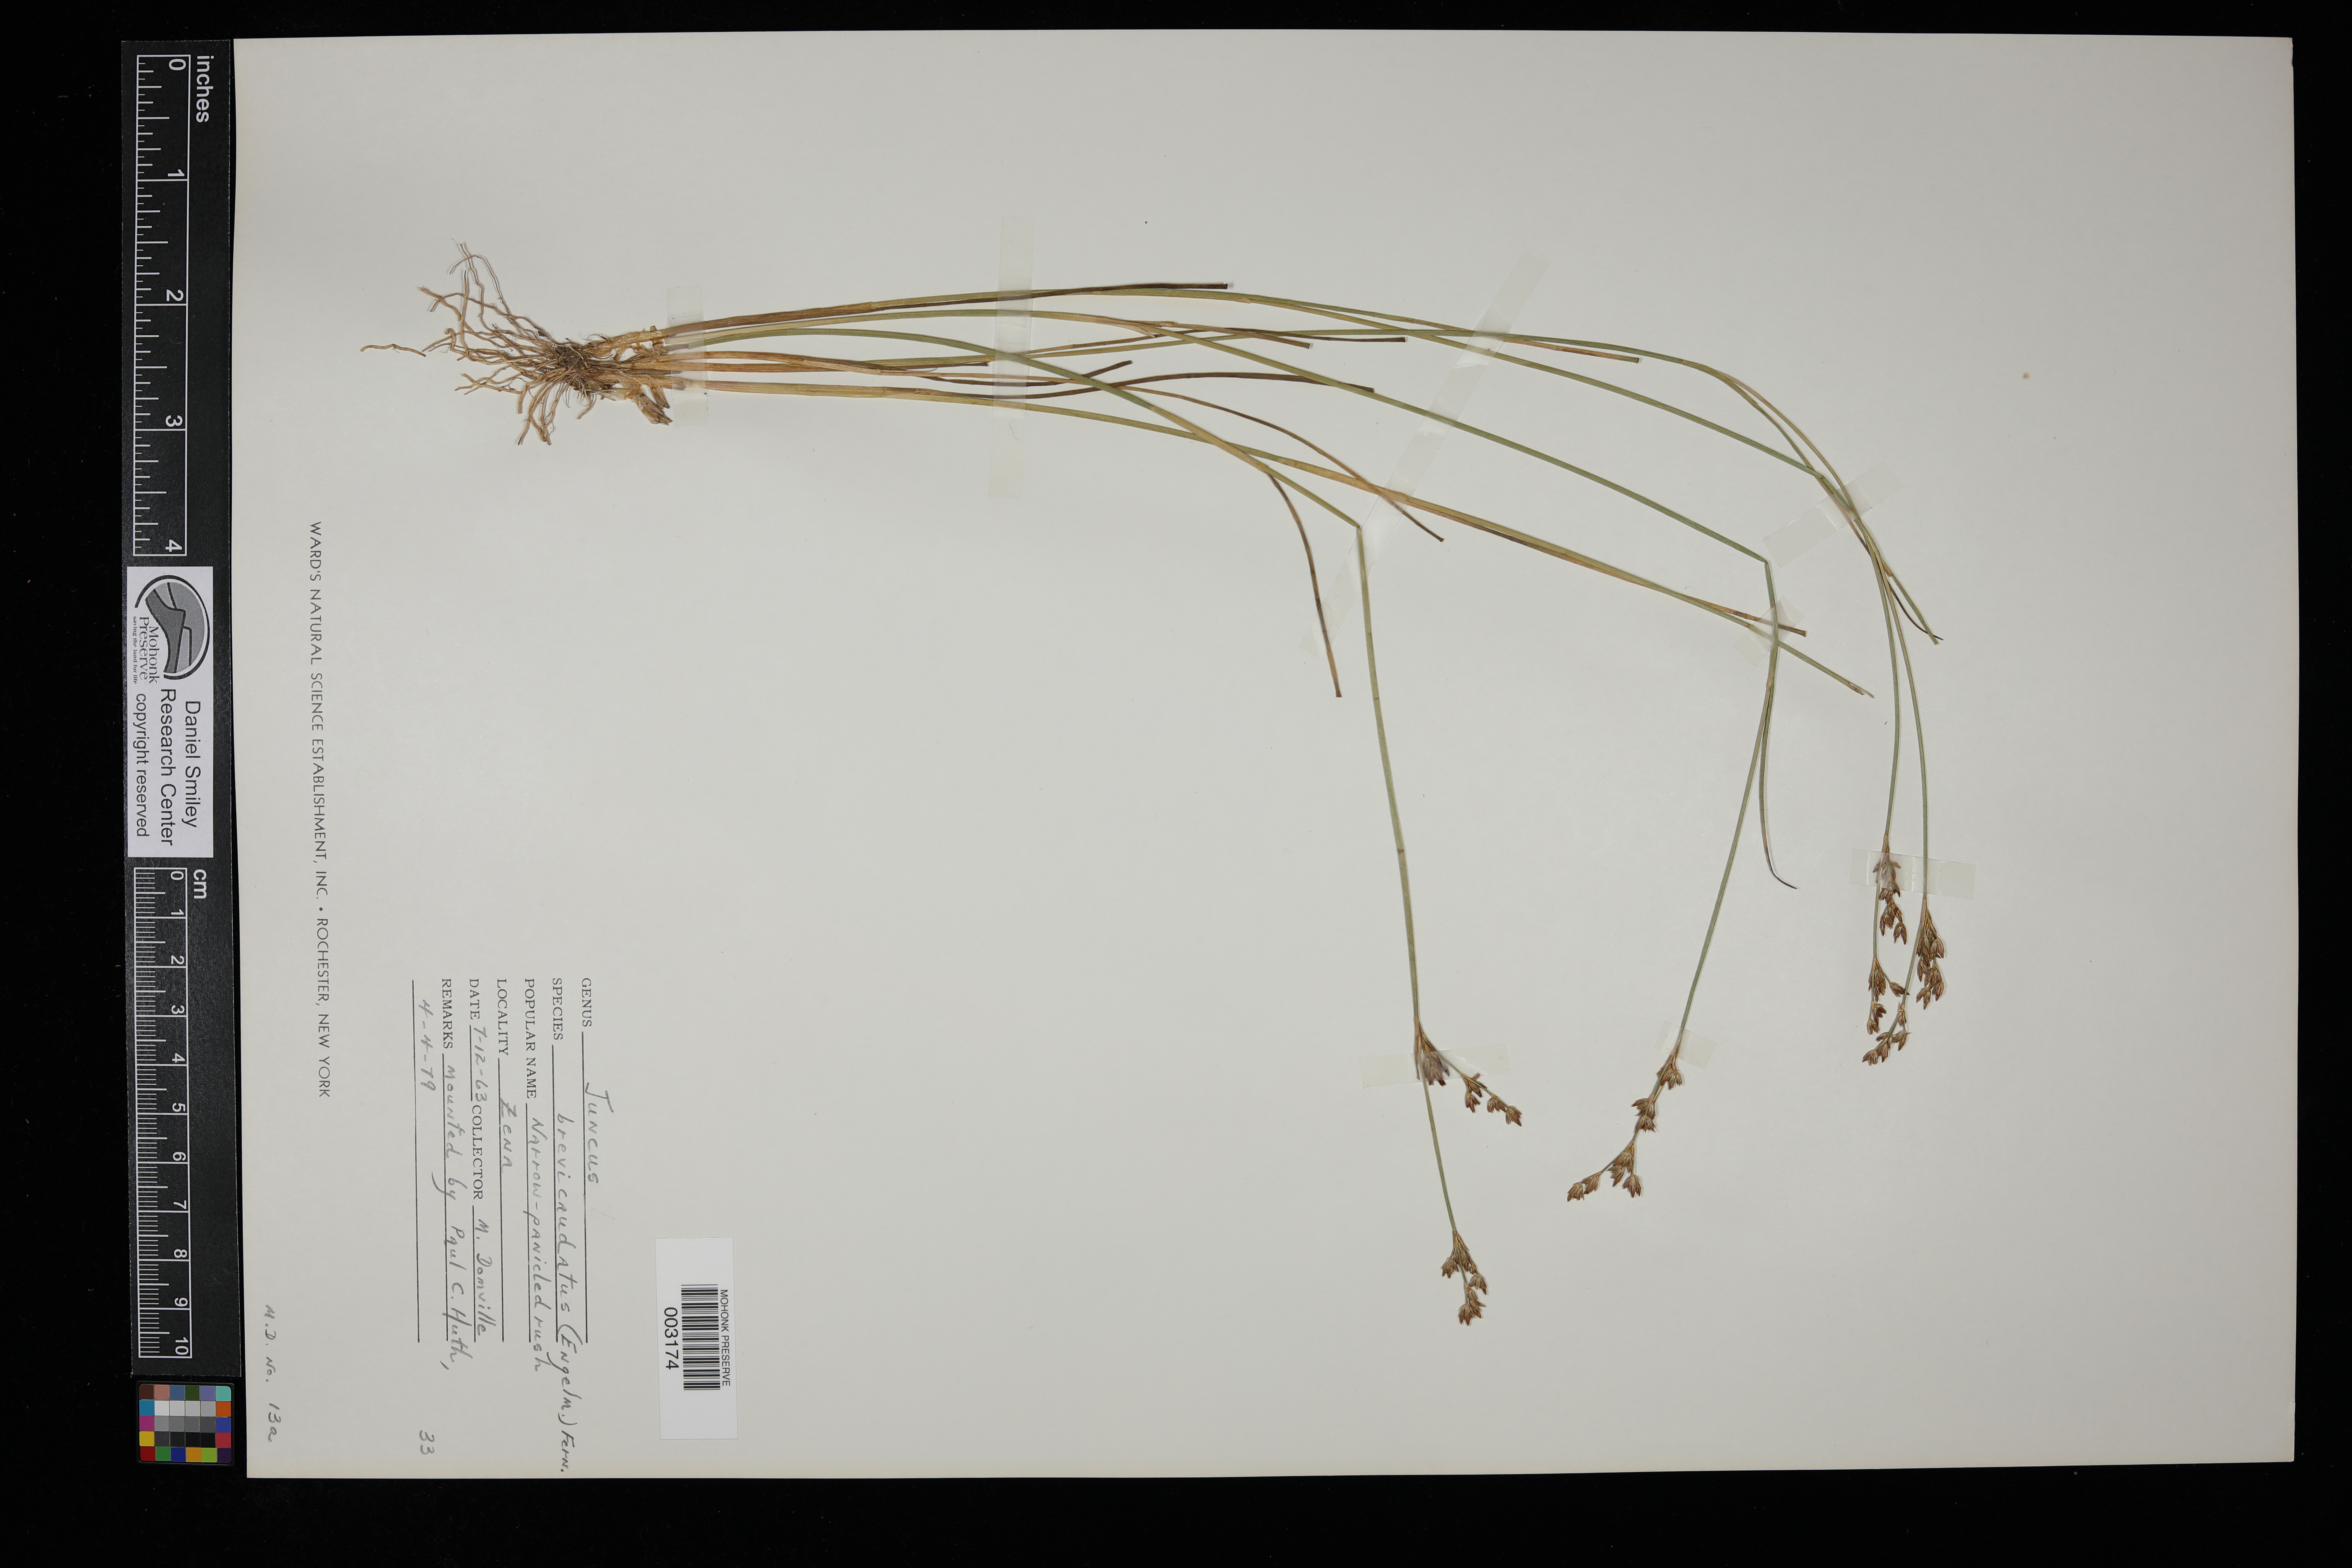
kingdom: Plantae
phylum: Tracheophyta
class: Liliopsida
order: Poales
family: Juncaceae
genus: Juncus
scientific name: Juncus brevicaudatus
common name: Narrow-panicle rush
